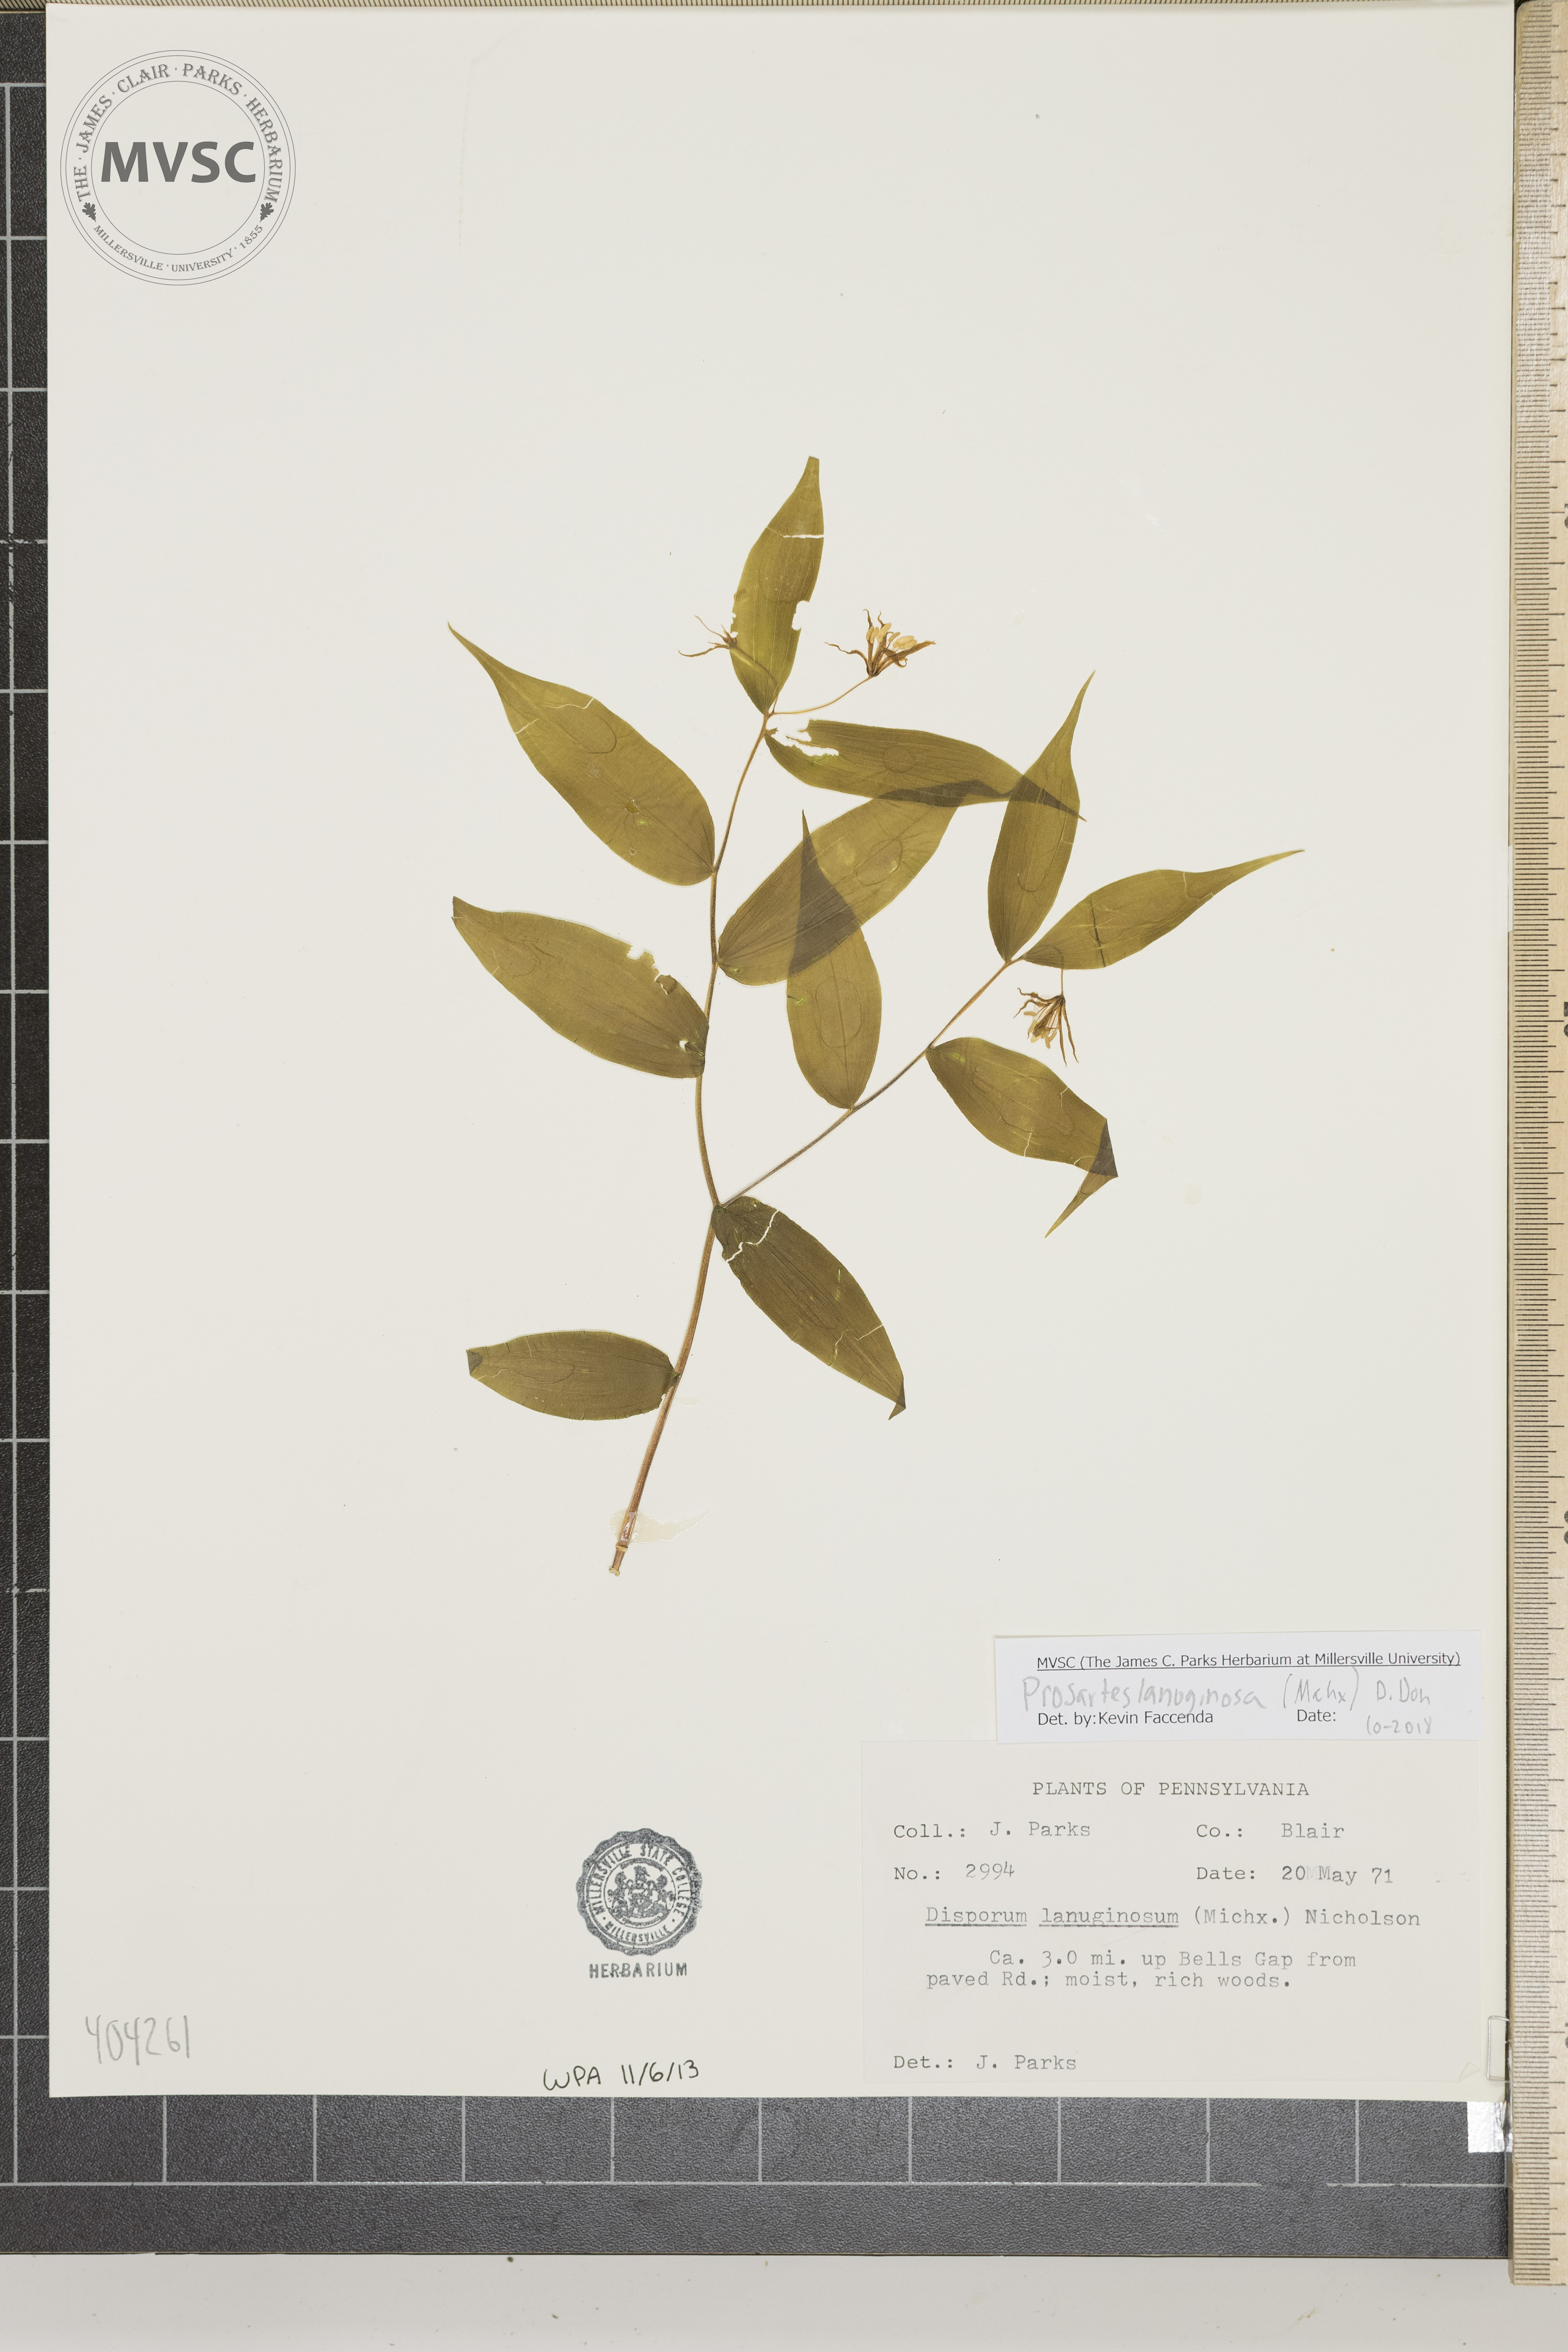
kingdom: Plantae
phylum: Tracheophyta
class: Liliopsida
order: Liliales
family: Liliaceae
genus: Prosartes
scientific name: Prosartes lanuginosa
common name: Hairy mandarin
